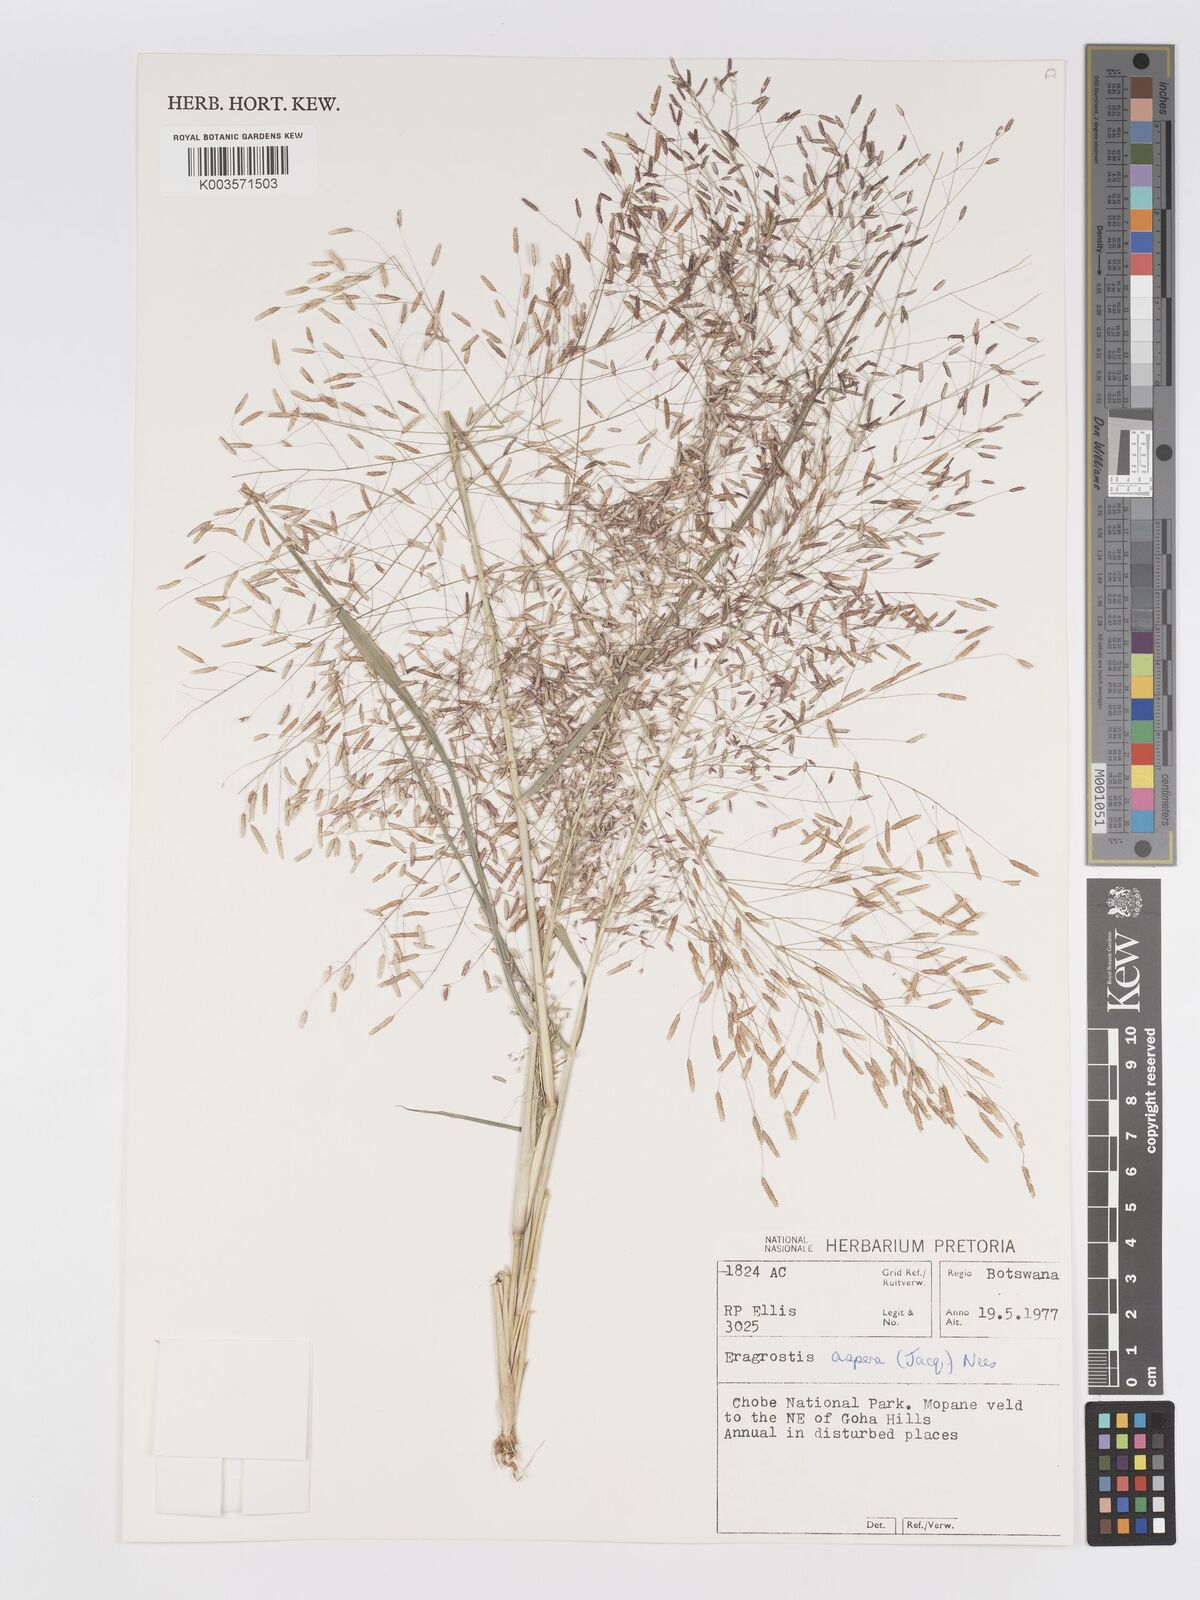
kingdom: Plantae
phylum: Tracheophyta
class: Liliopsida
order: Poales
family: Poaceae
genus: Eragrostis
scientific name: Eragrostis aspera
